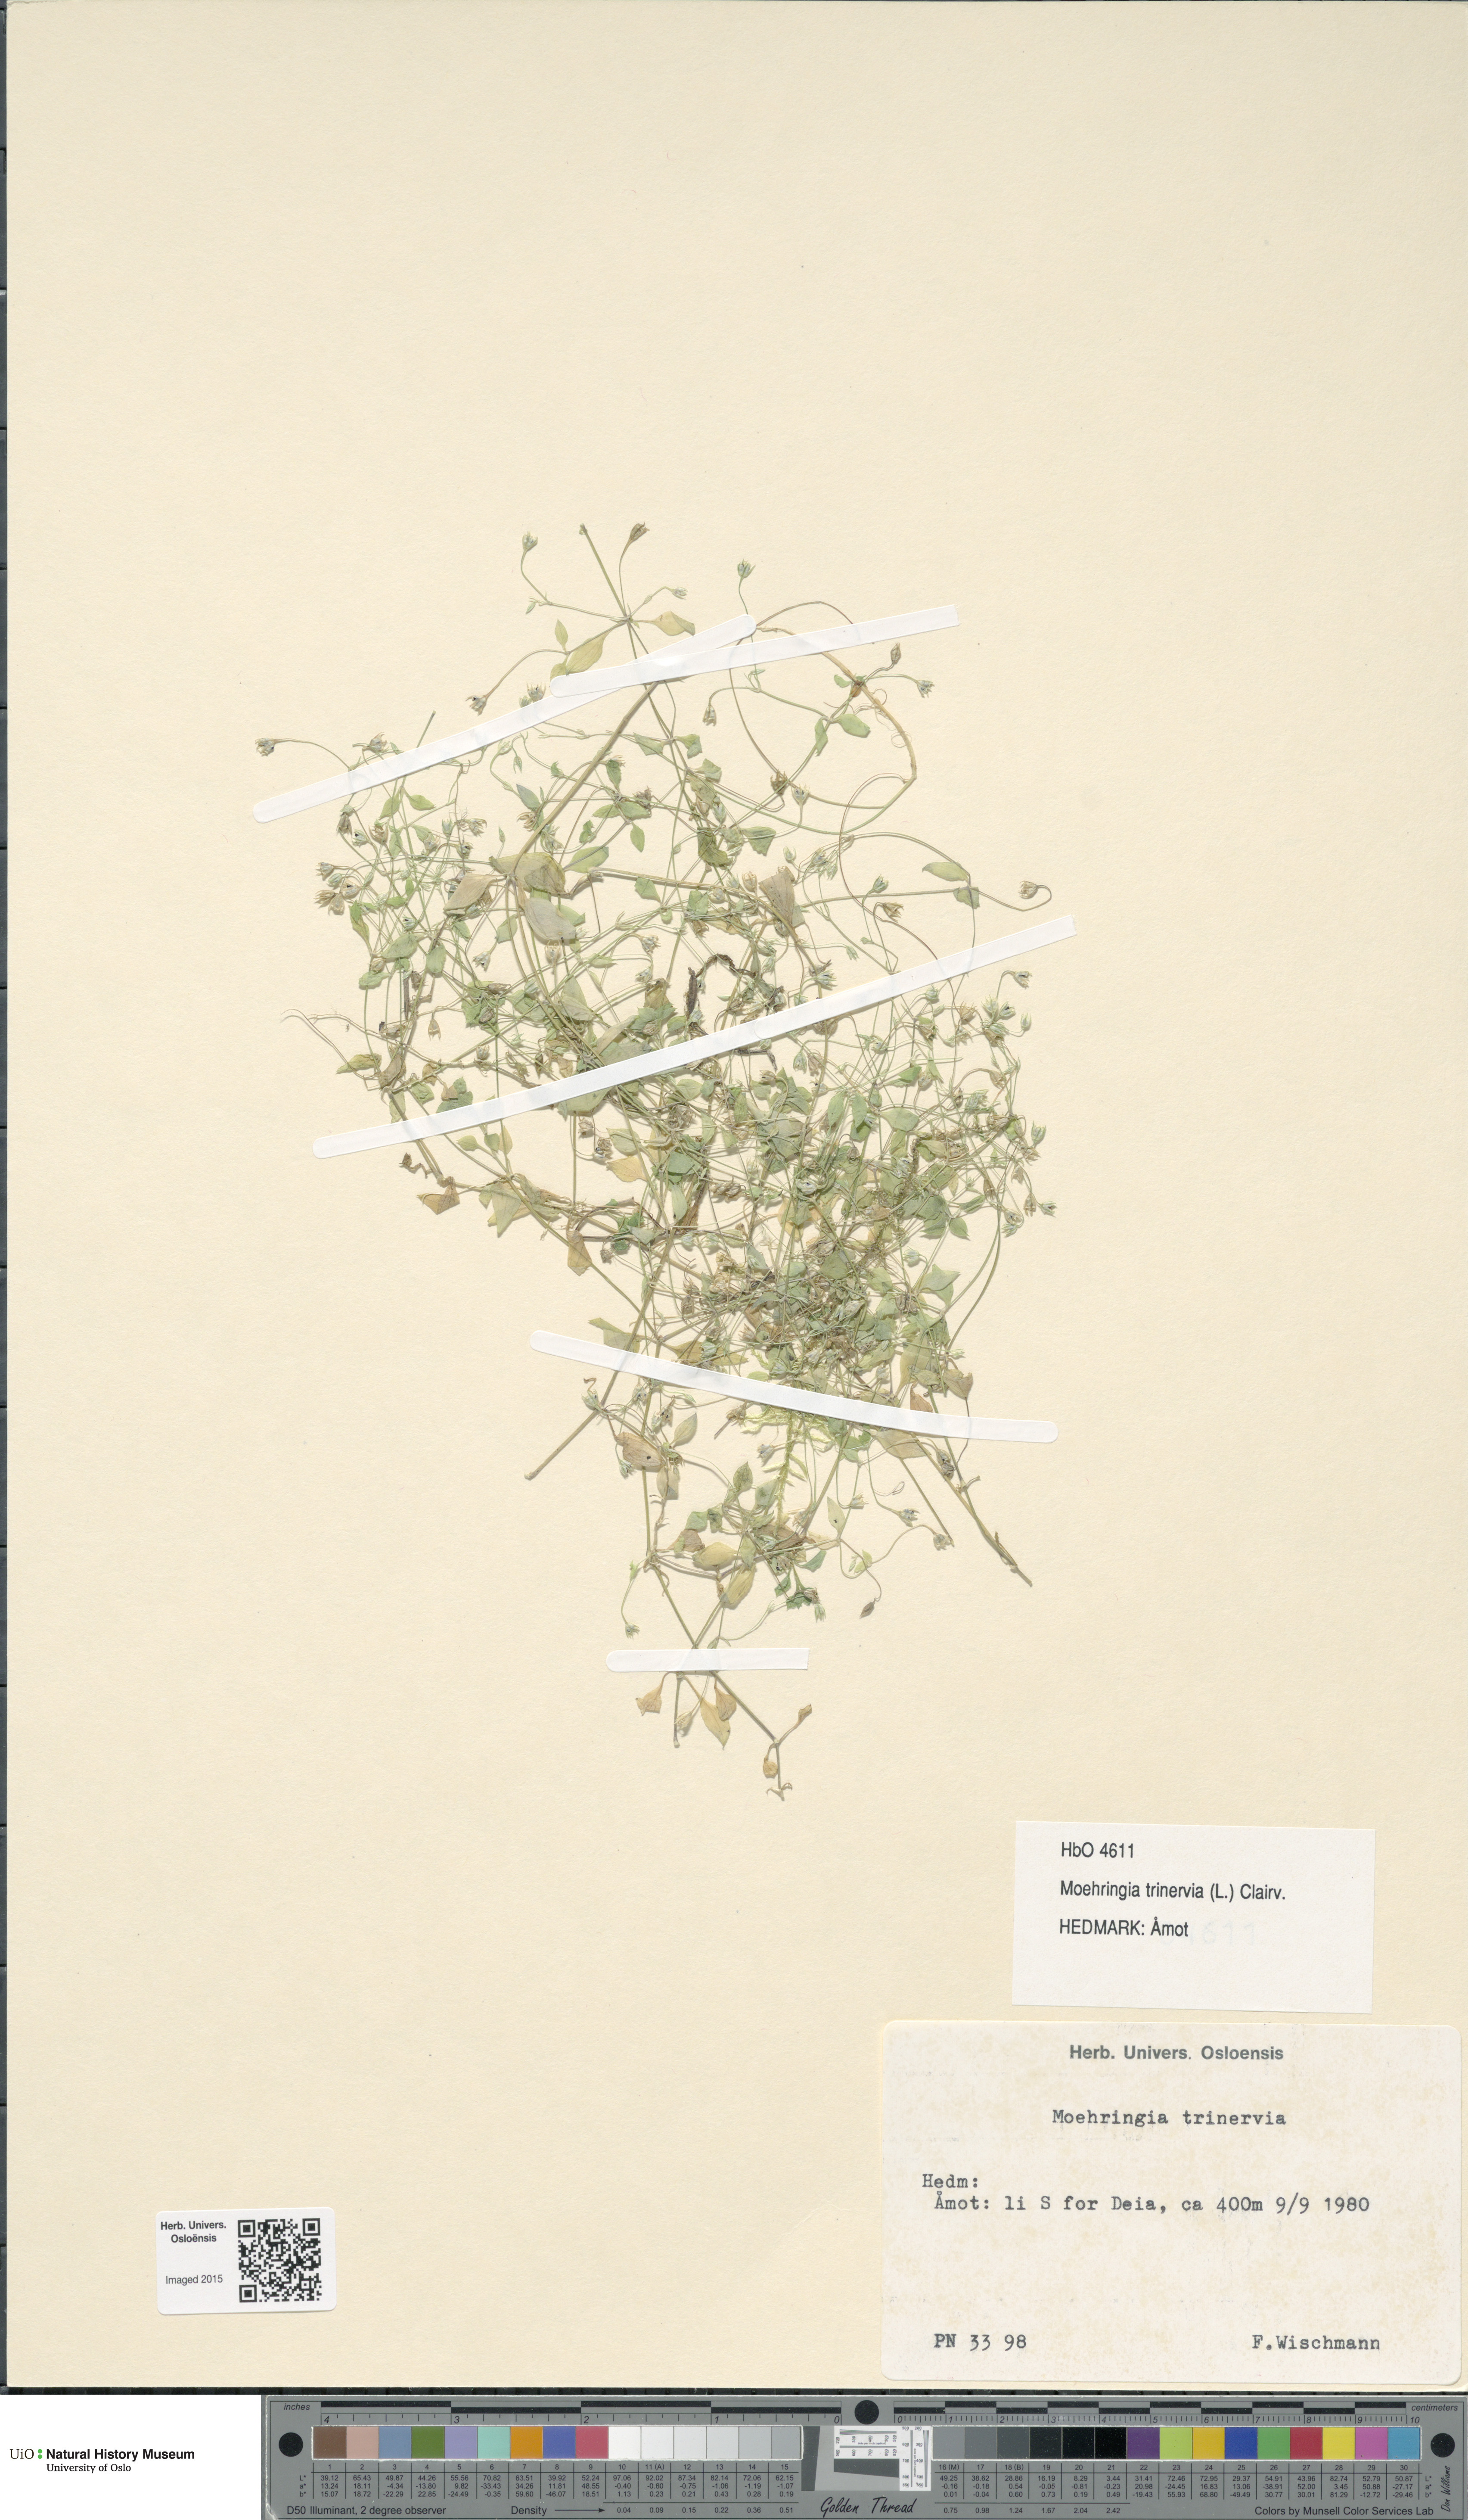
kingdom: Plantae
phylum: Tracheophyta
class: Magnoliopsida
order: Caryophyllales
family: Caryophyllaceae
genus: Moehringia
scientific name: Moehringia trinervia
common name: Three-nerved sandwort
